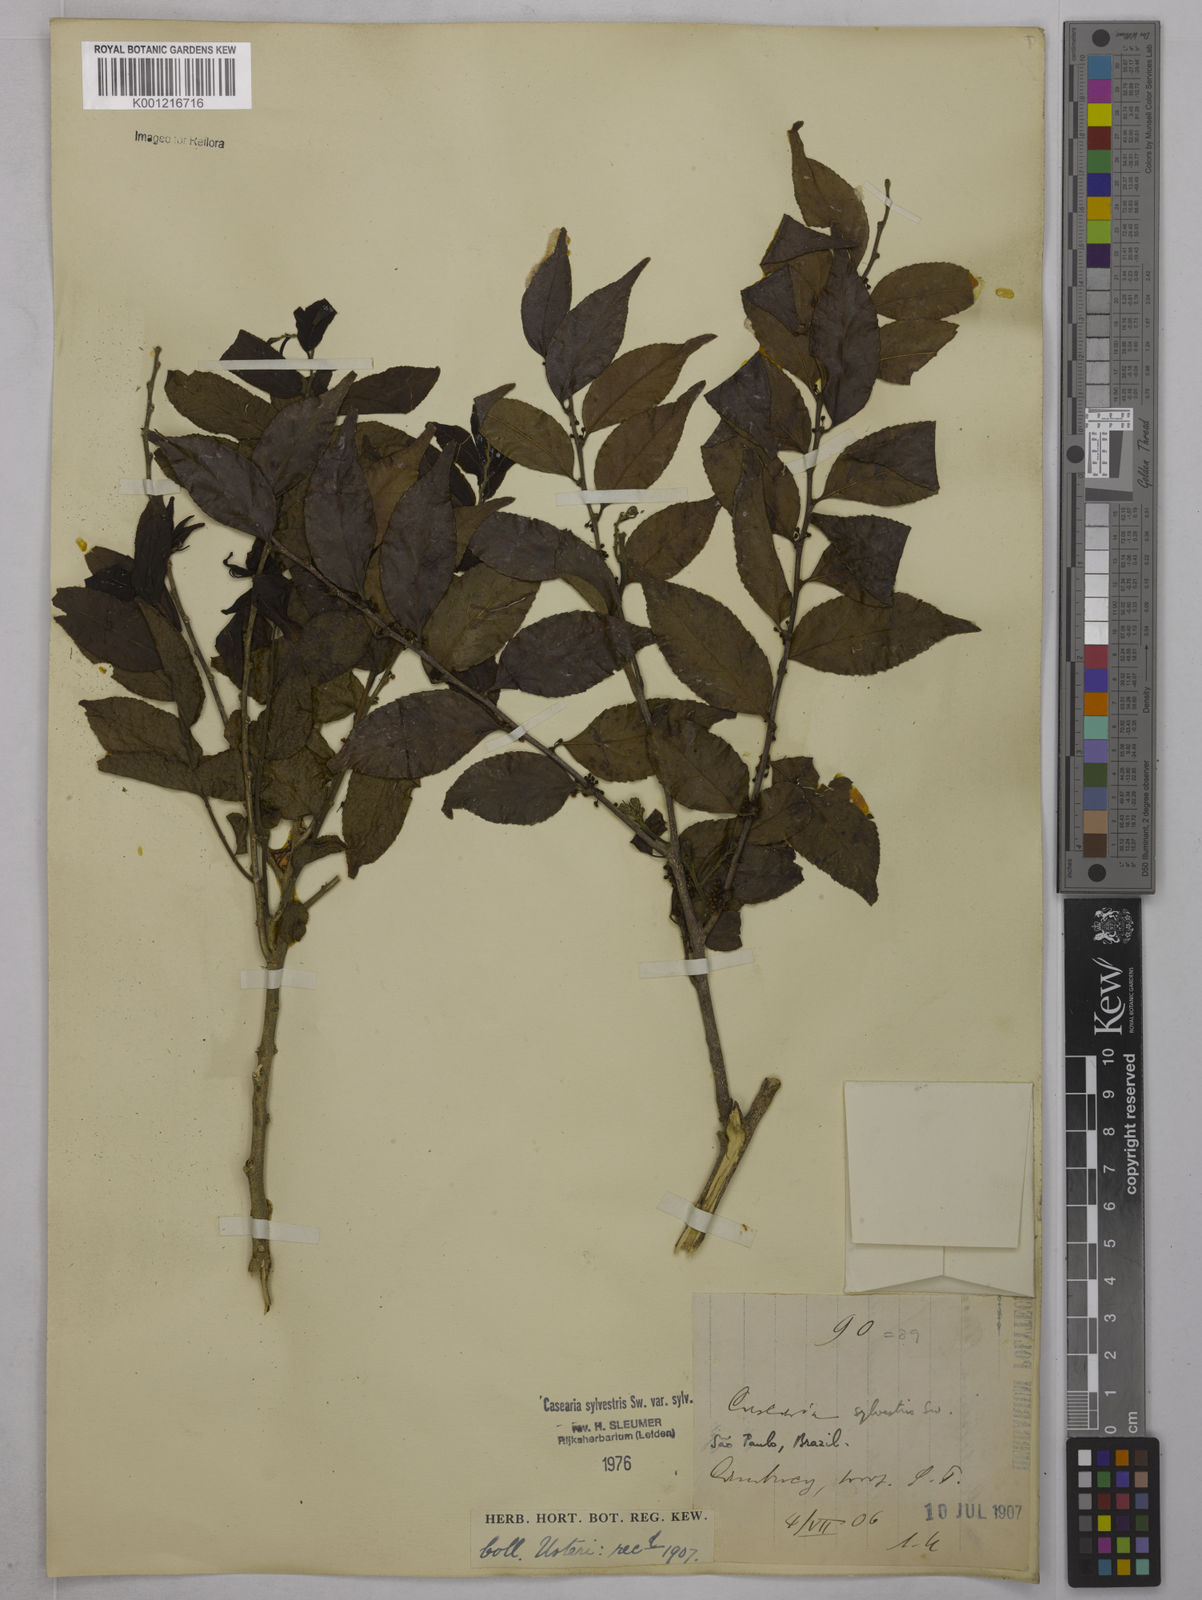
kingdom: Plantae
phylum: Tracheophyta
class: Magnoliopsida
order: Malpighiales
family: Salicaceae
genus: Casearia
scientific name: Casearia sylvestris
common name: Wild sage
